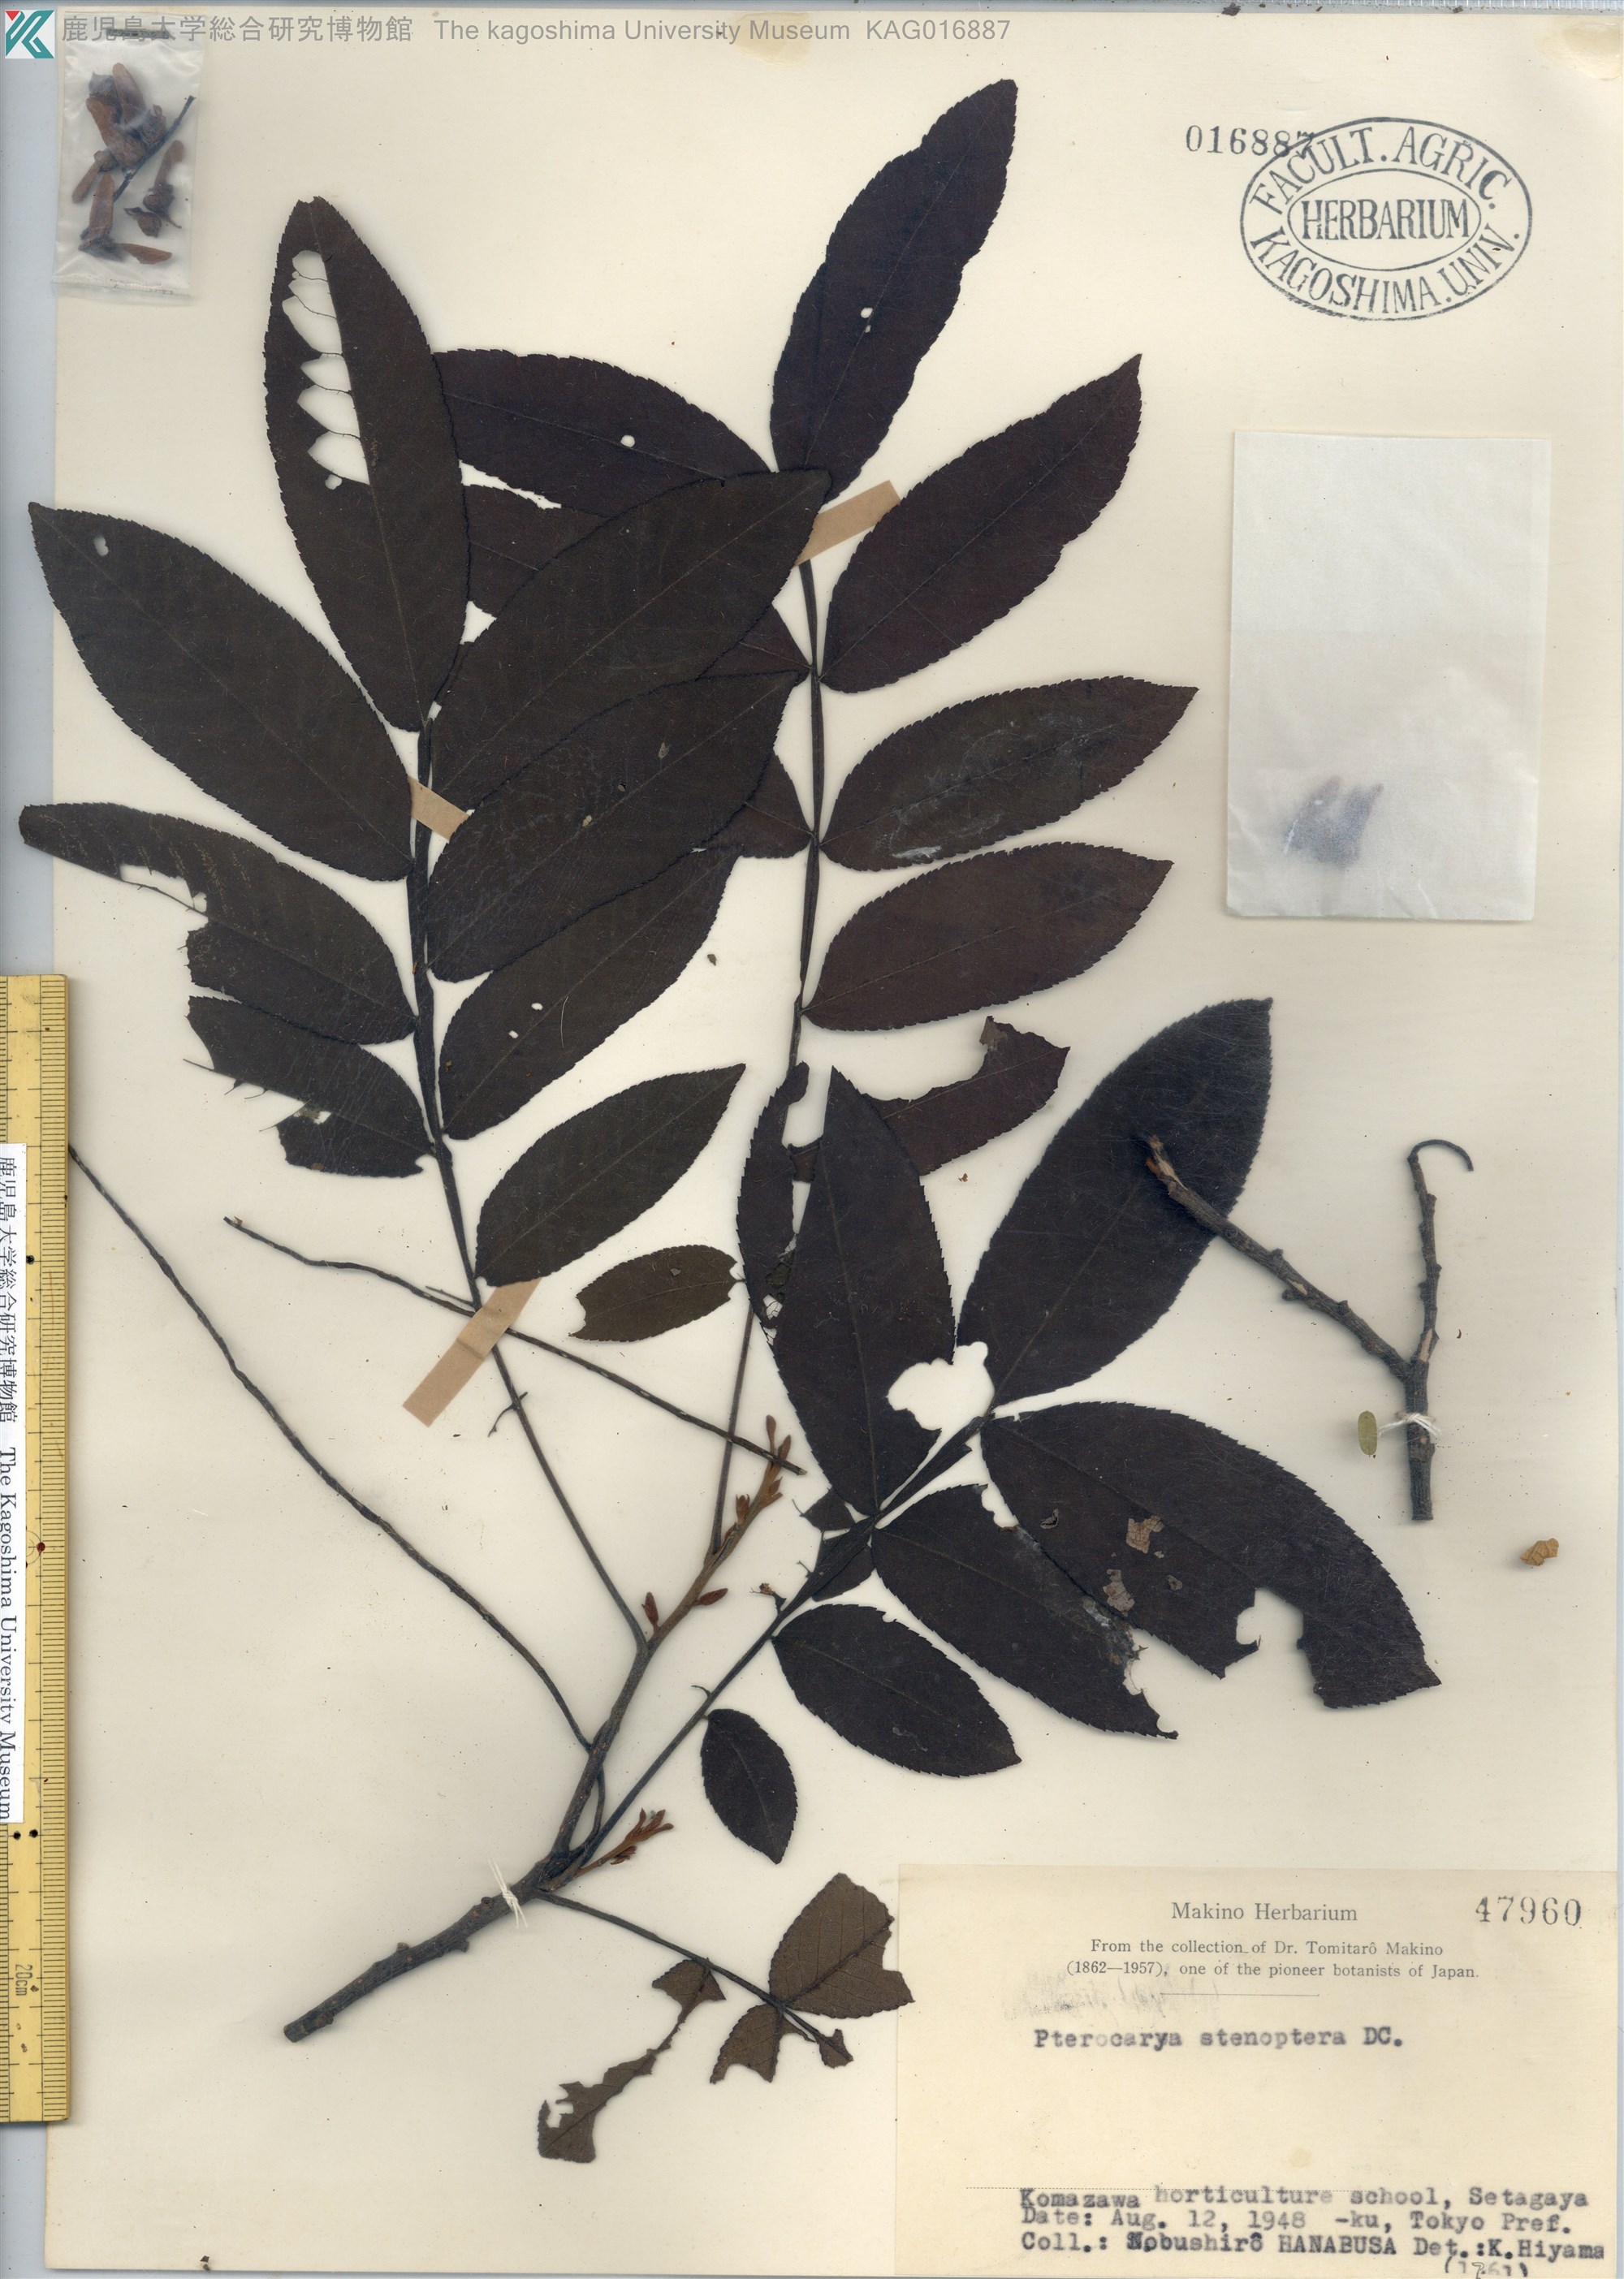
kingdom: Plantae
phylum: Tracheophyta
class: Magnoliopsida
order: Fagales
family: Juglandaceae
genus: Pterocarya
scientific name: Pterocarya stenoptera
